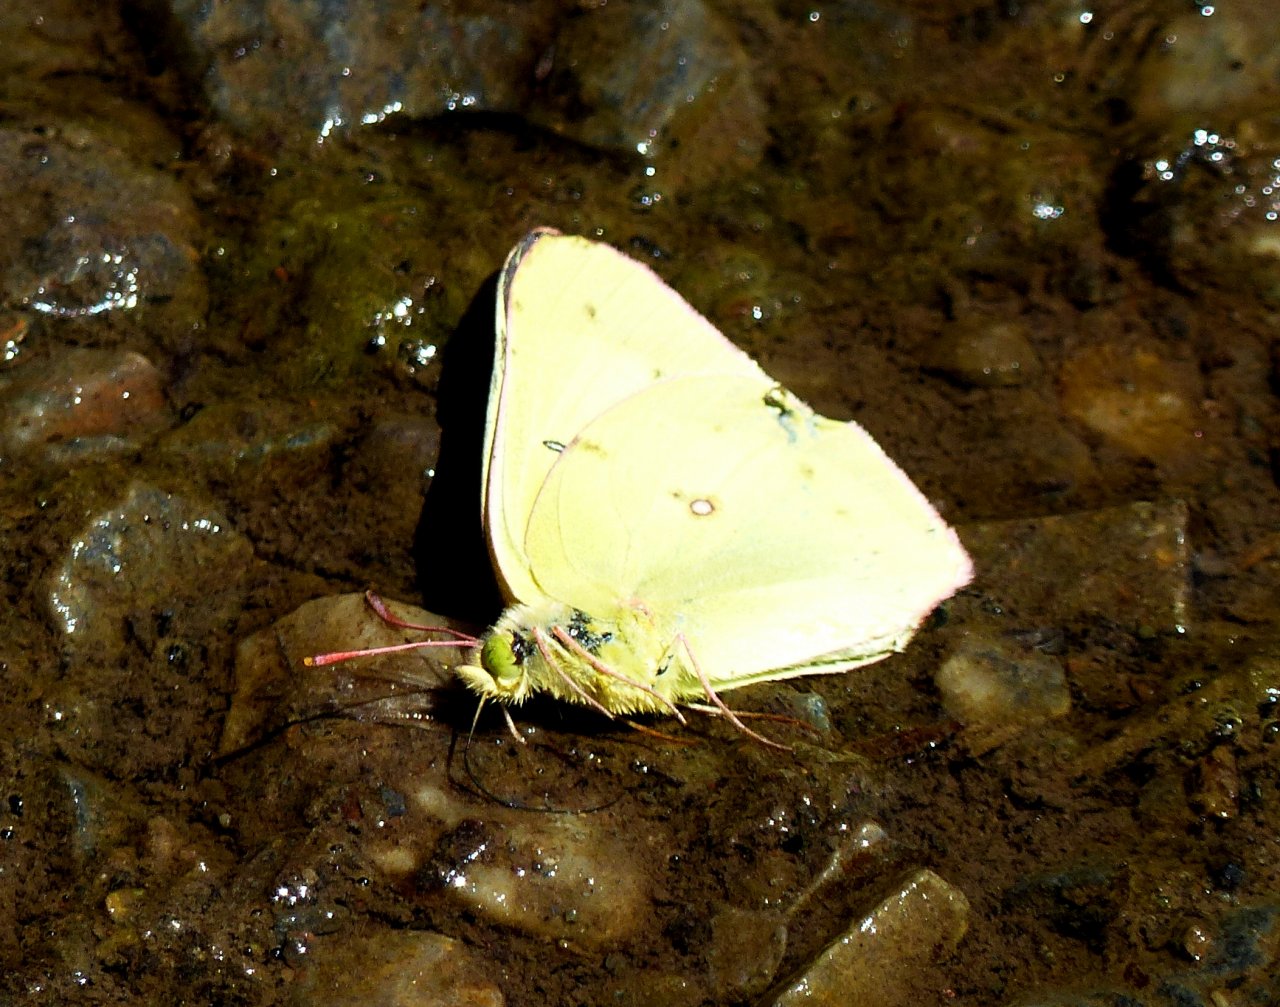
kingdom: Animalia
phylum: Arthropoda
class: Insecta
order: Lepidoptera
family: Pieridae
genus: Colias
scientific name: Colias philodice
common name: Clouded Sulphur
